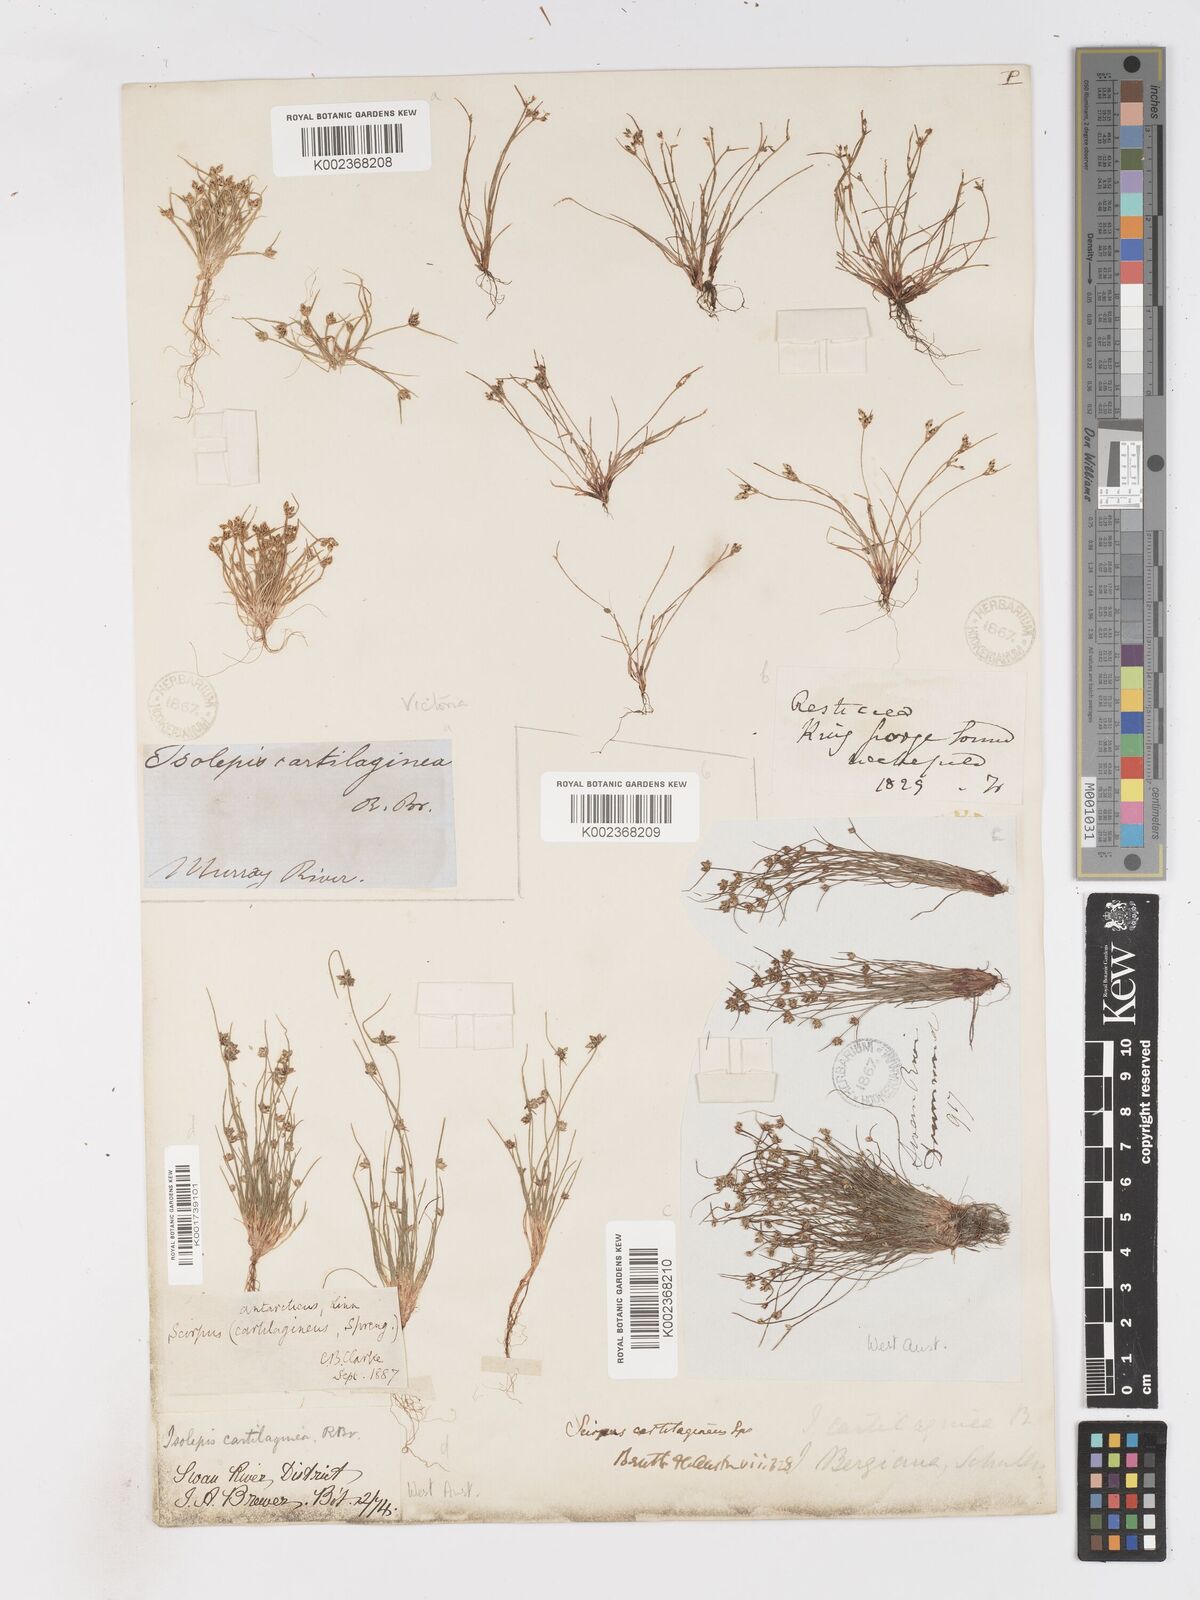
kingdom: Plantae
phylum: Tracheophyta
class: Liliopsida
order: Poales
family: Cyperaceae
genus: Isolepis
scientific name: Isolepis marginata
